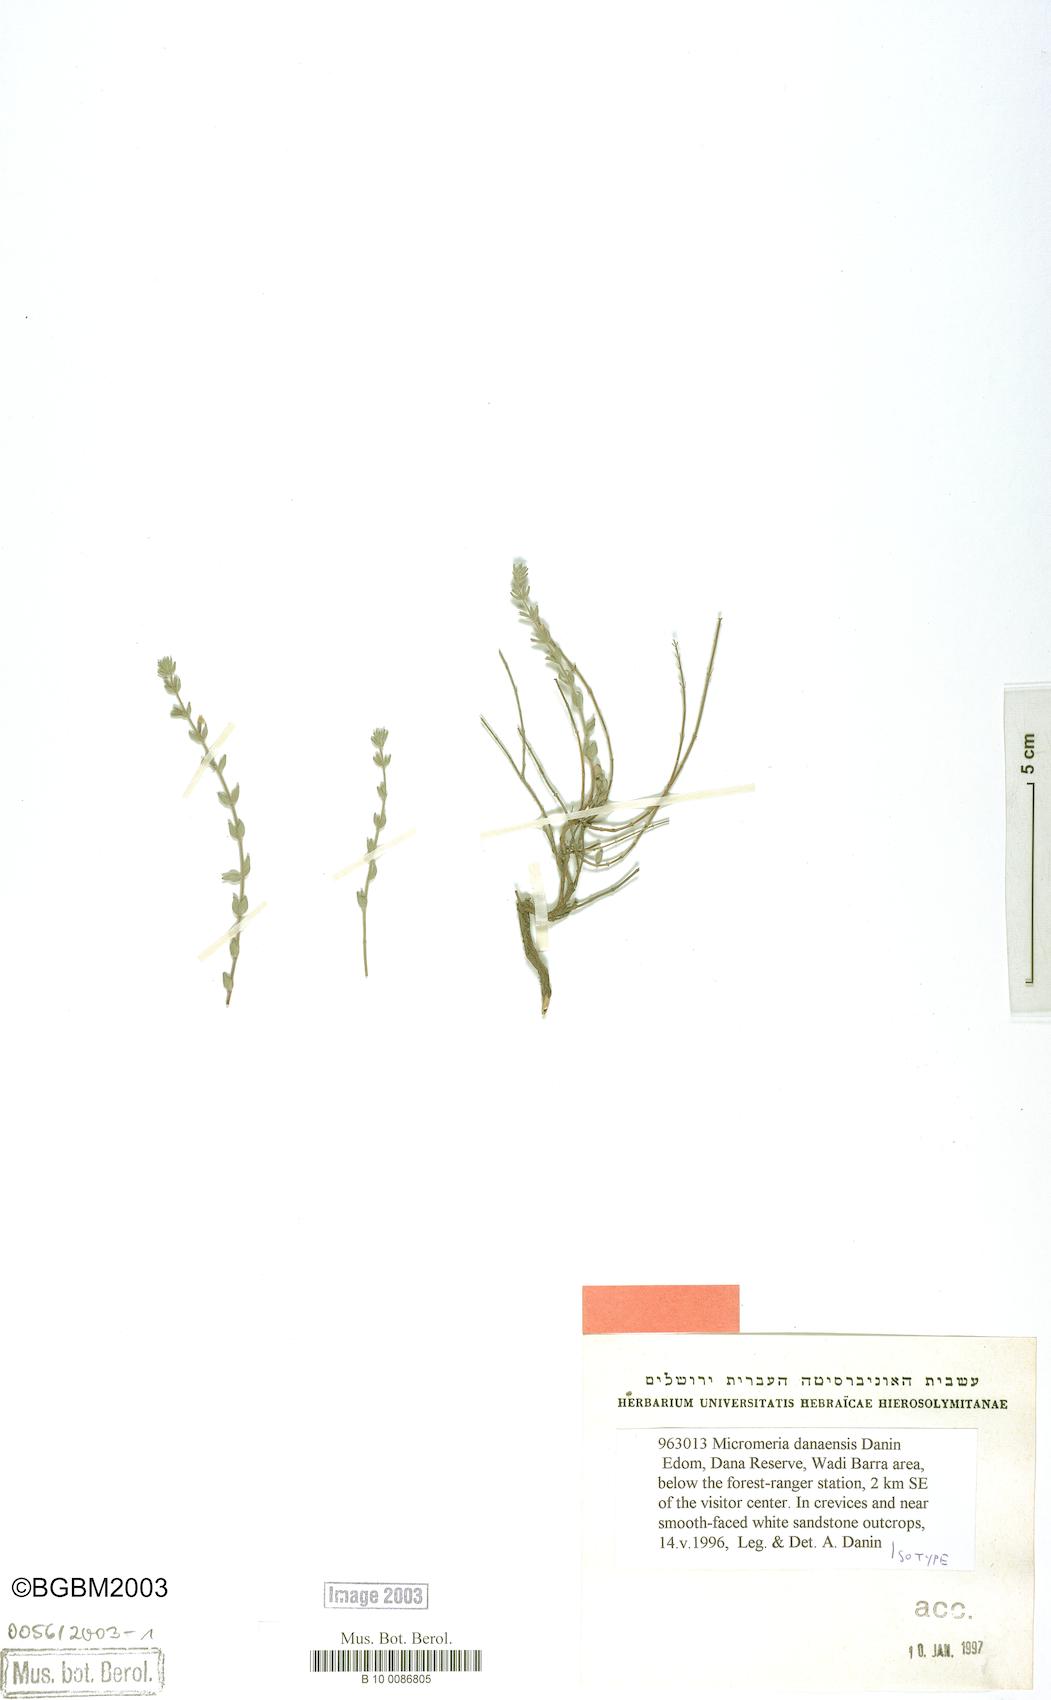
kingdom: Plantae
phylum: Tracheophyta
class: Magnoliopsida
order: Lamiales
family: Lamiaceae
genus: Micromeria
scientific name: Micromeria danaensis
